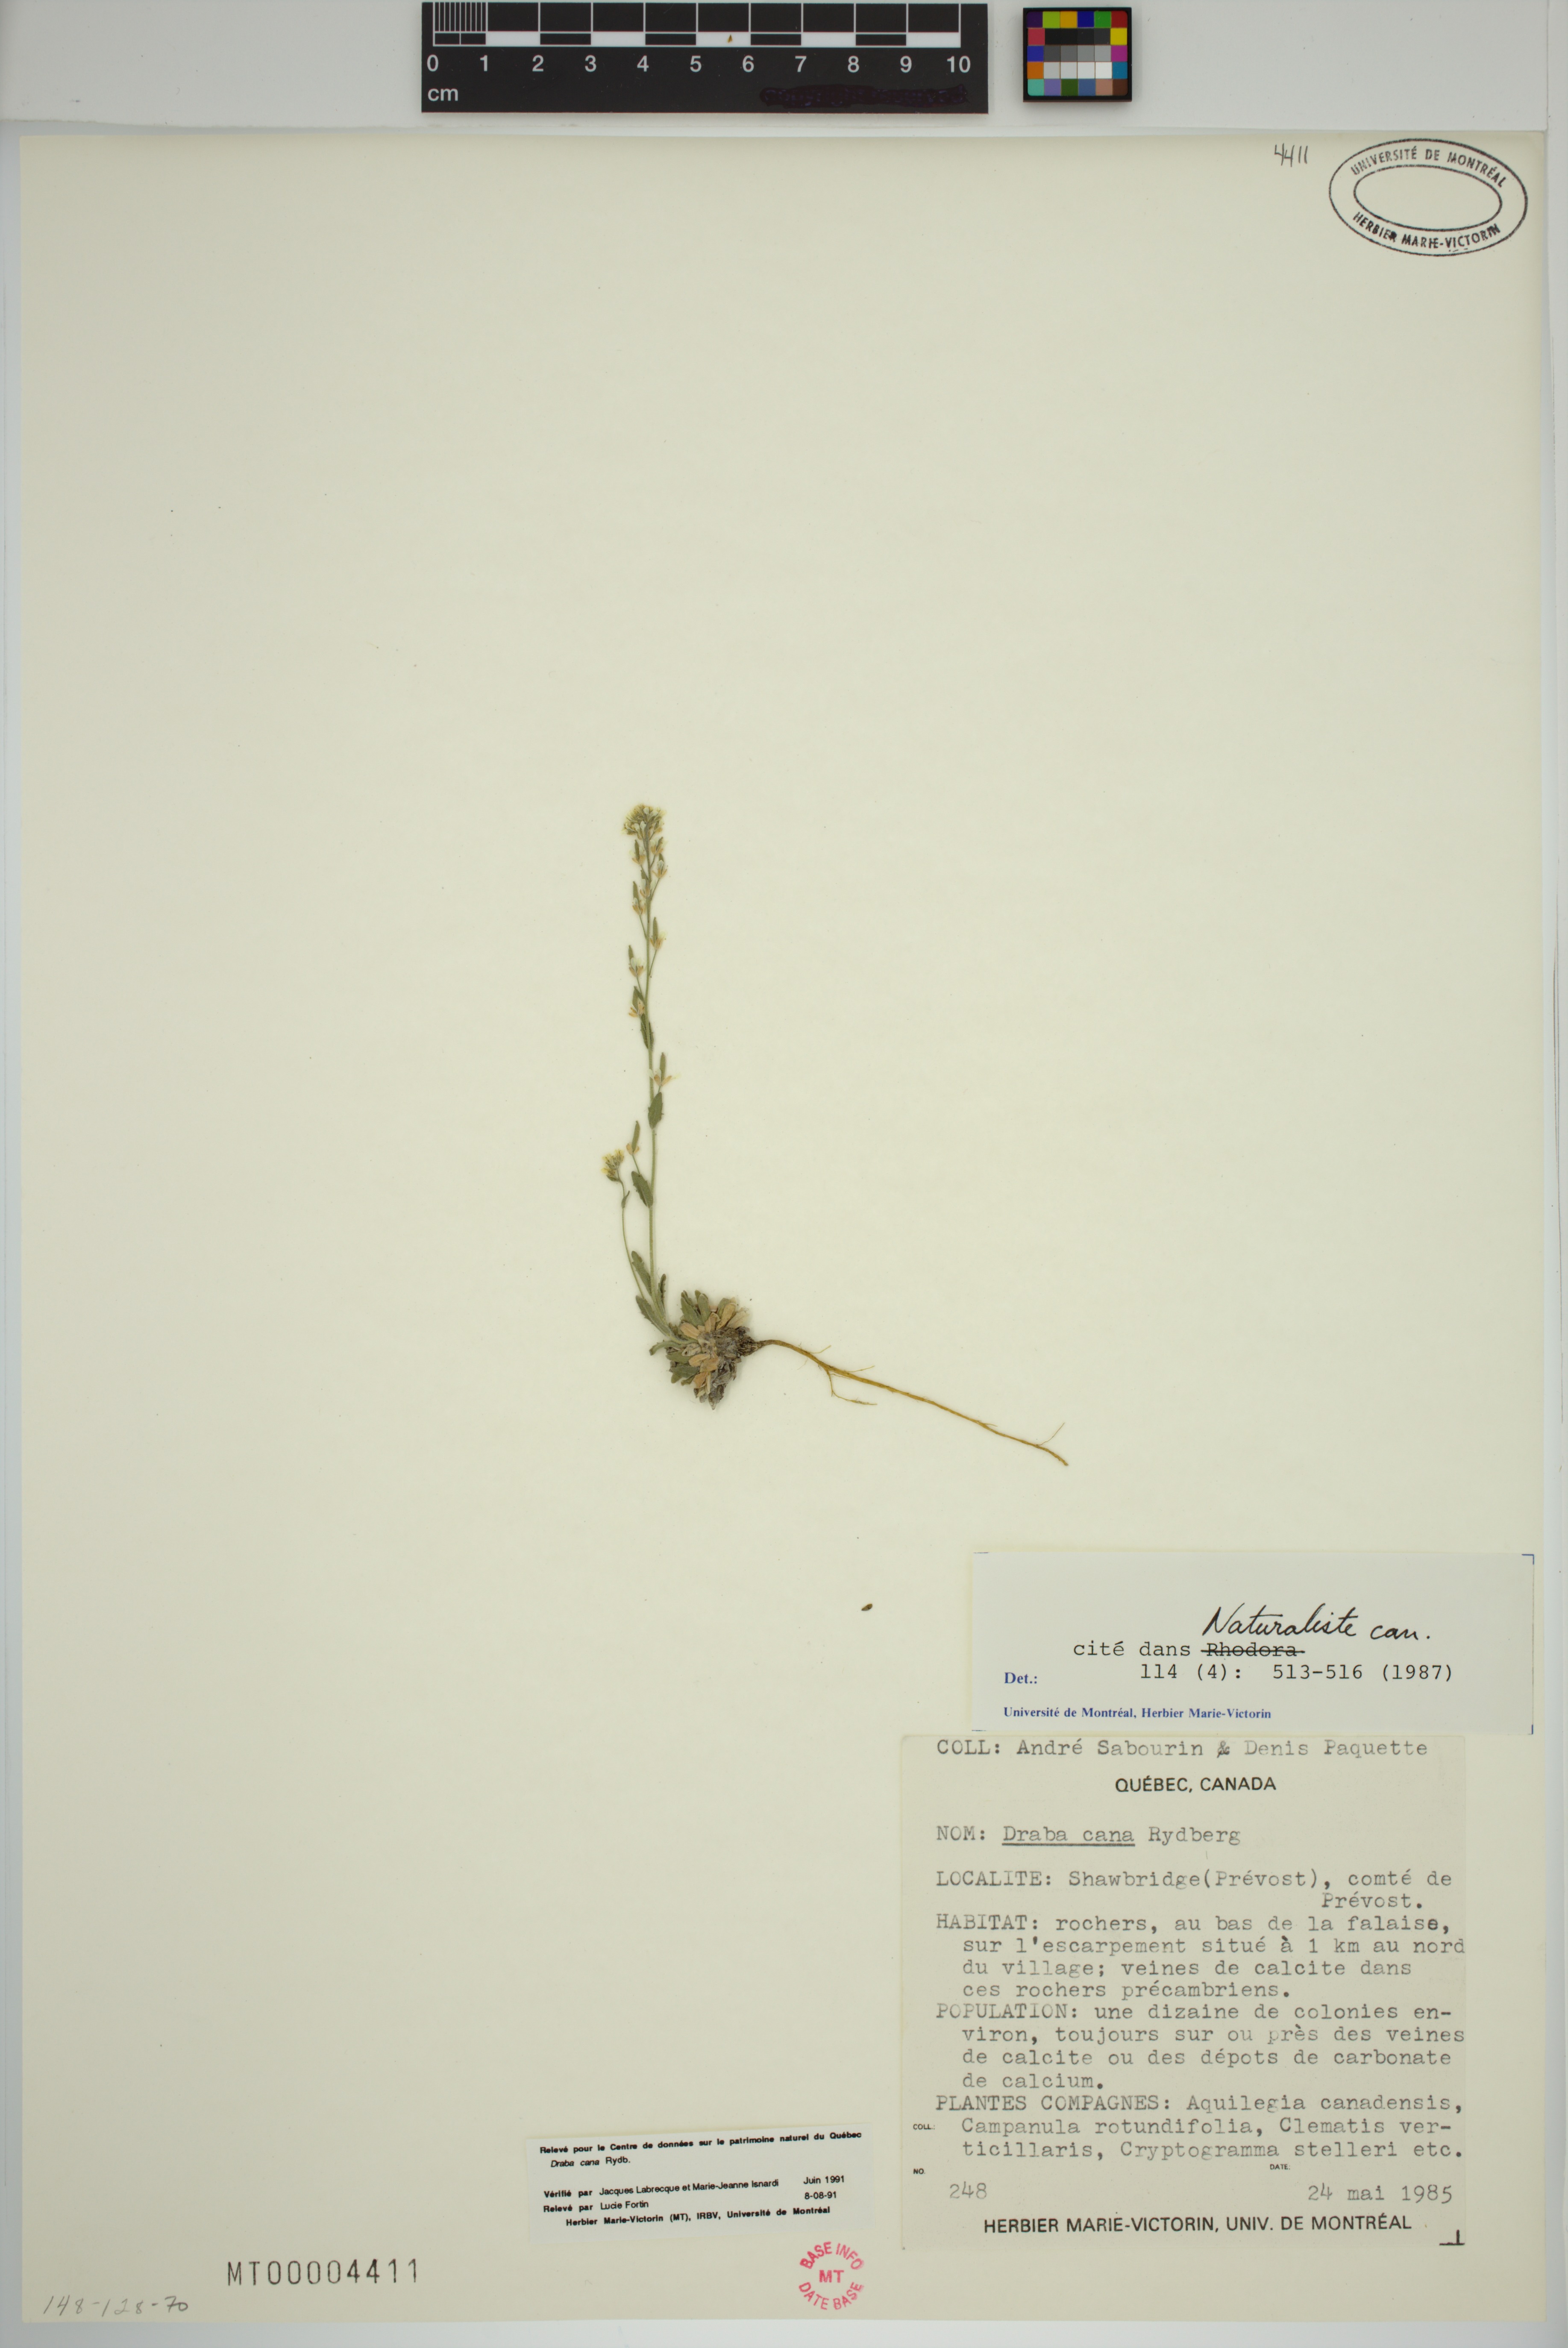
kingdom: Plantae
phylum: Tracheophyta
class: Magnoliopsida
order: Brassicales
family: Brassicaceae
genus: Draba
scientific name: Draba cana
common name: Hoary draba
